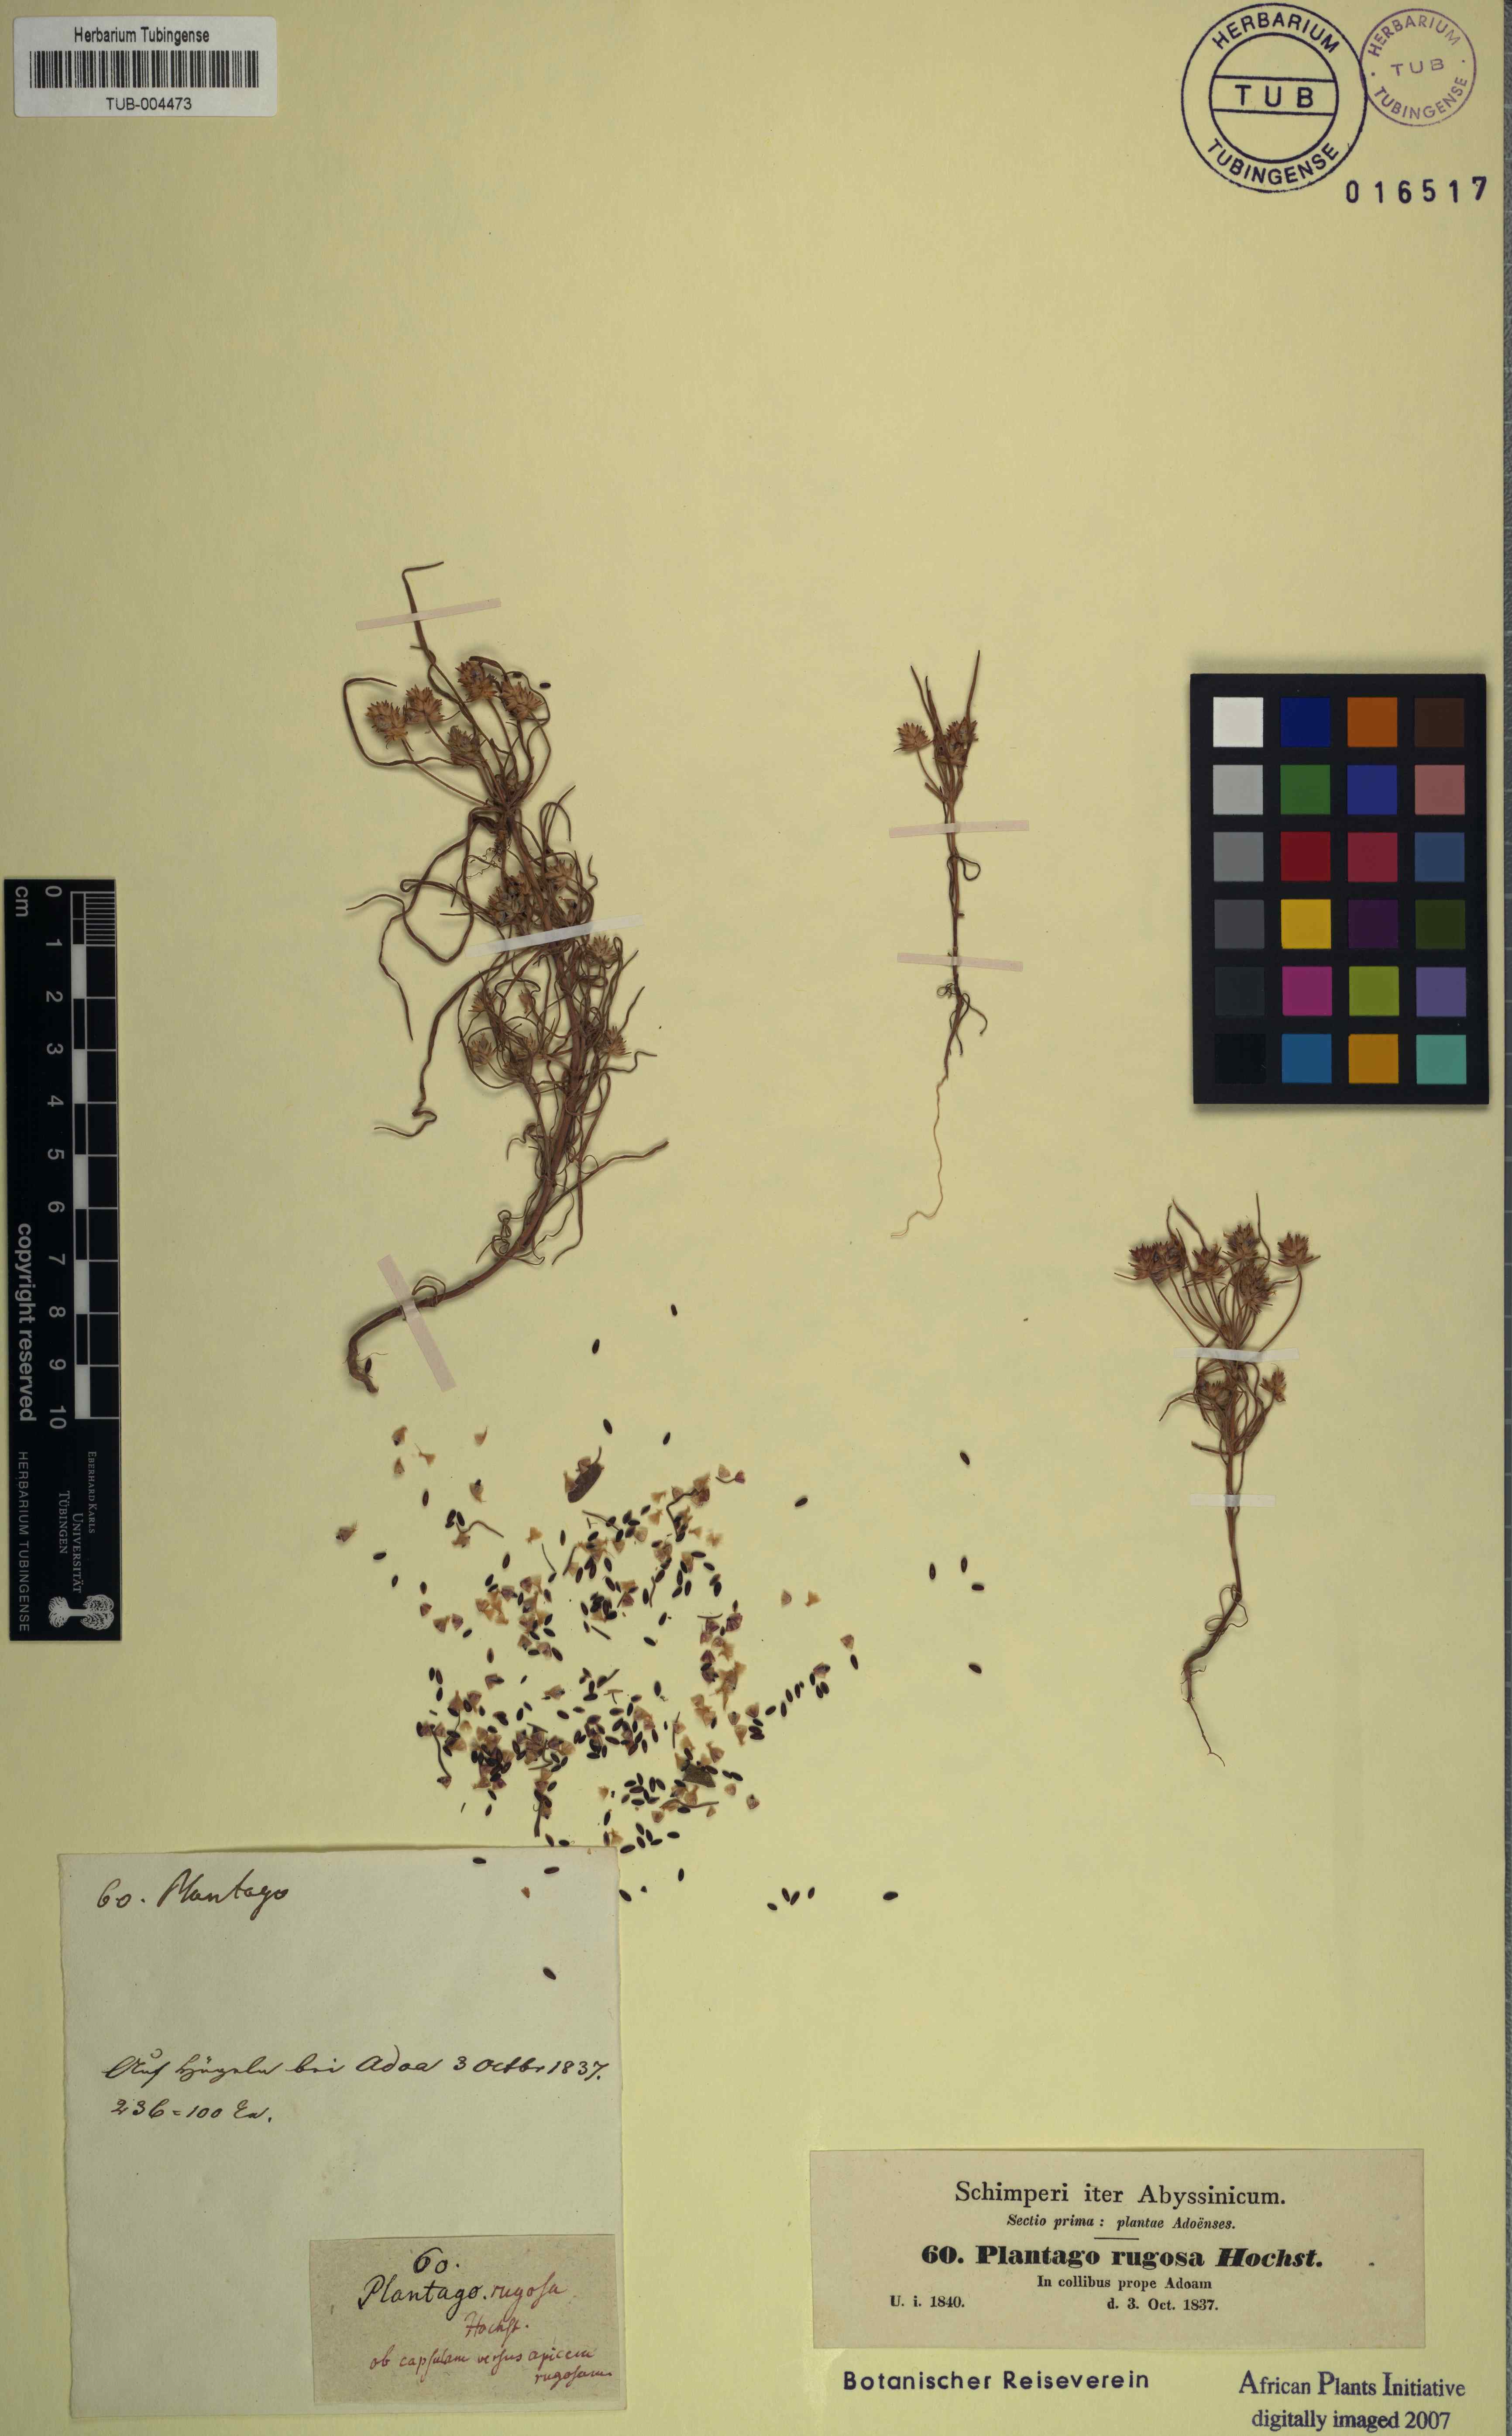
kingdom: Plantae
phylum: Tracheophyta
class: Magnoliopsida
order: Lamiales
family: Plantaginaceae
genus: Plantago
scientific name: Plantago afra
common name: Glandular plantain
